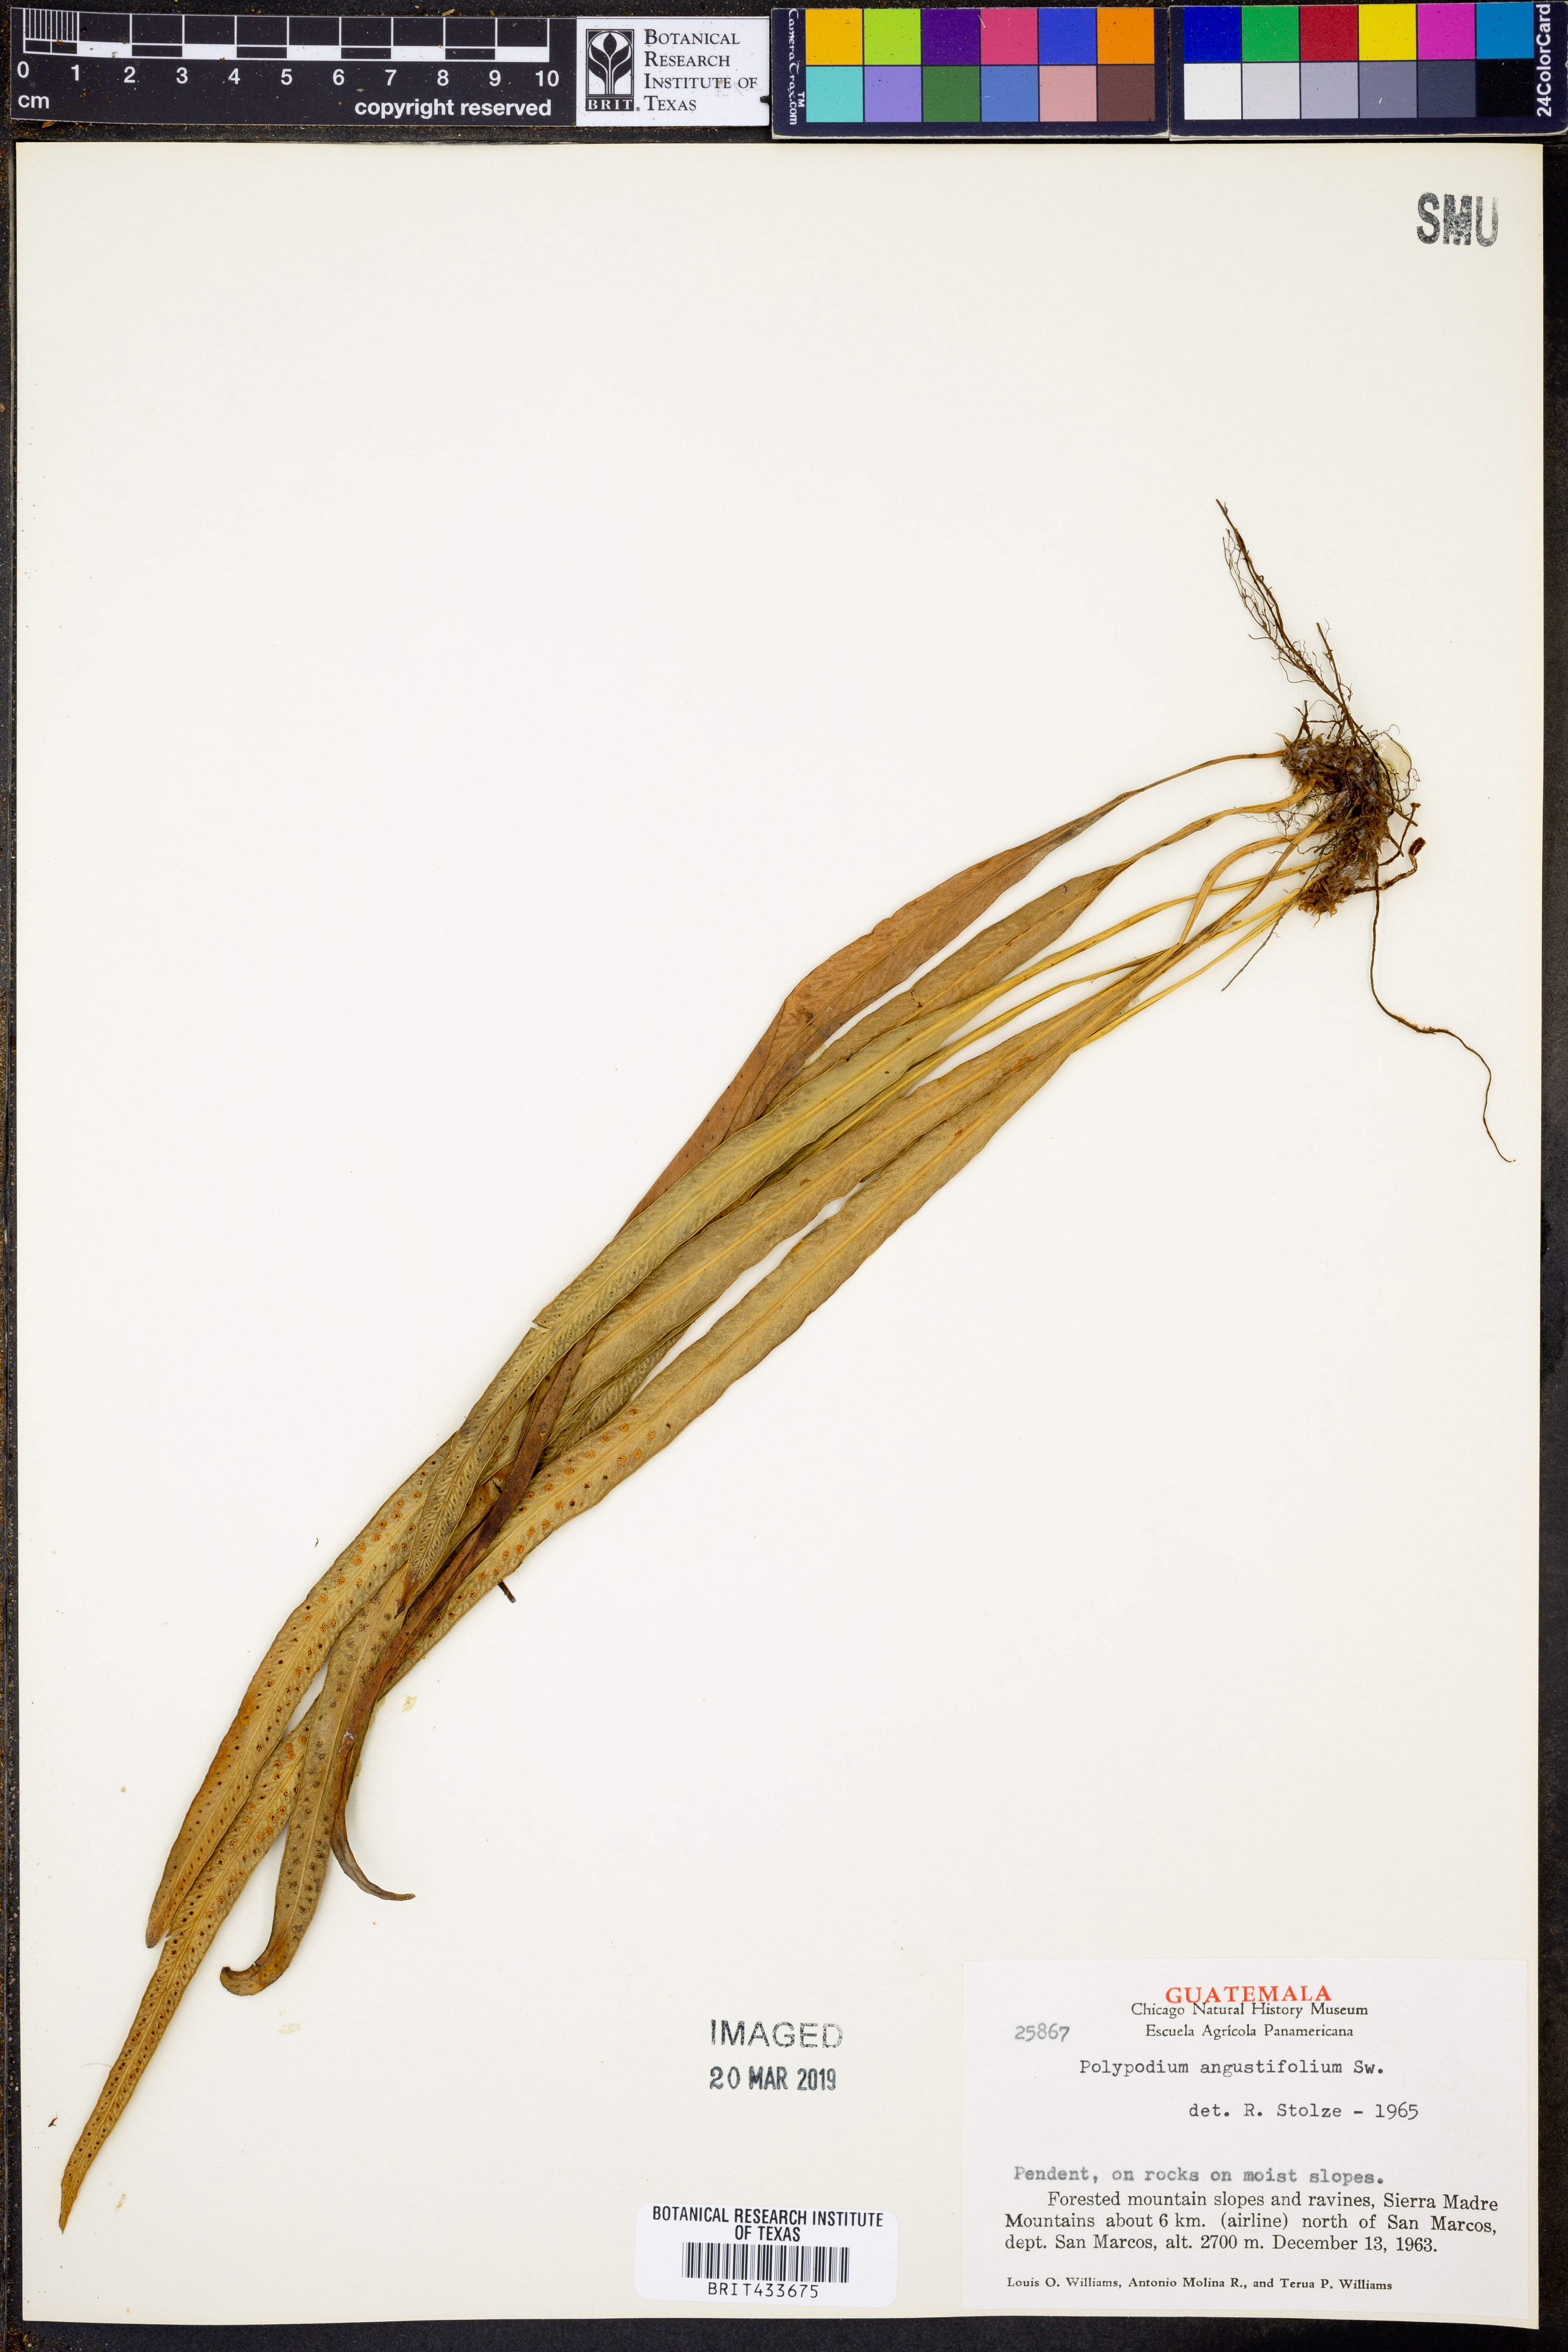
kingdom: Plantae
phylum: Tracheophyta
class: Polypodiopsida
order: Polypodiales
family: Polypodiaceae
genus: Campyloneurum
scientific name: Campyloneurum angustifolium
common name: Narrow-leaf strap fern
